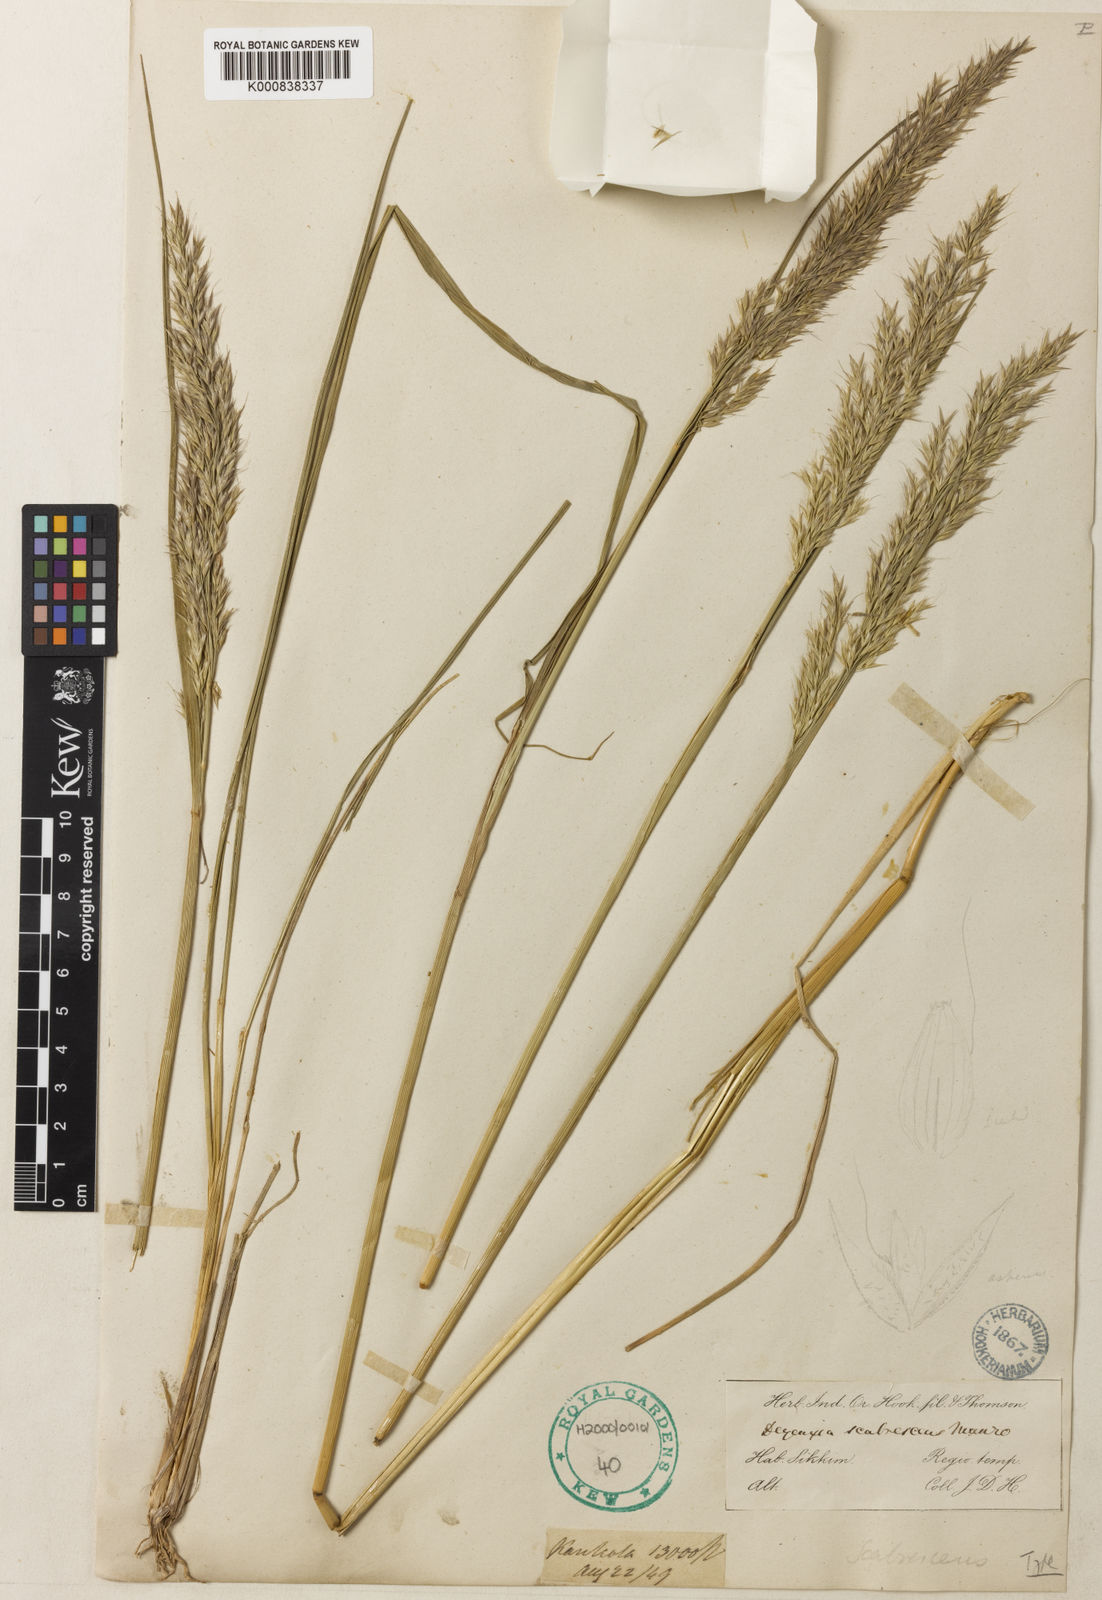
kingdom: Plantae
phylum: Tracheophyta
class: Liliopsida
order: Poales
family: Poaceae
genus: Calamagrostis
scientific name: Calamagrostis scabrescens
